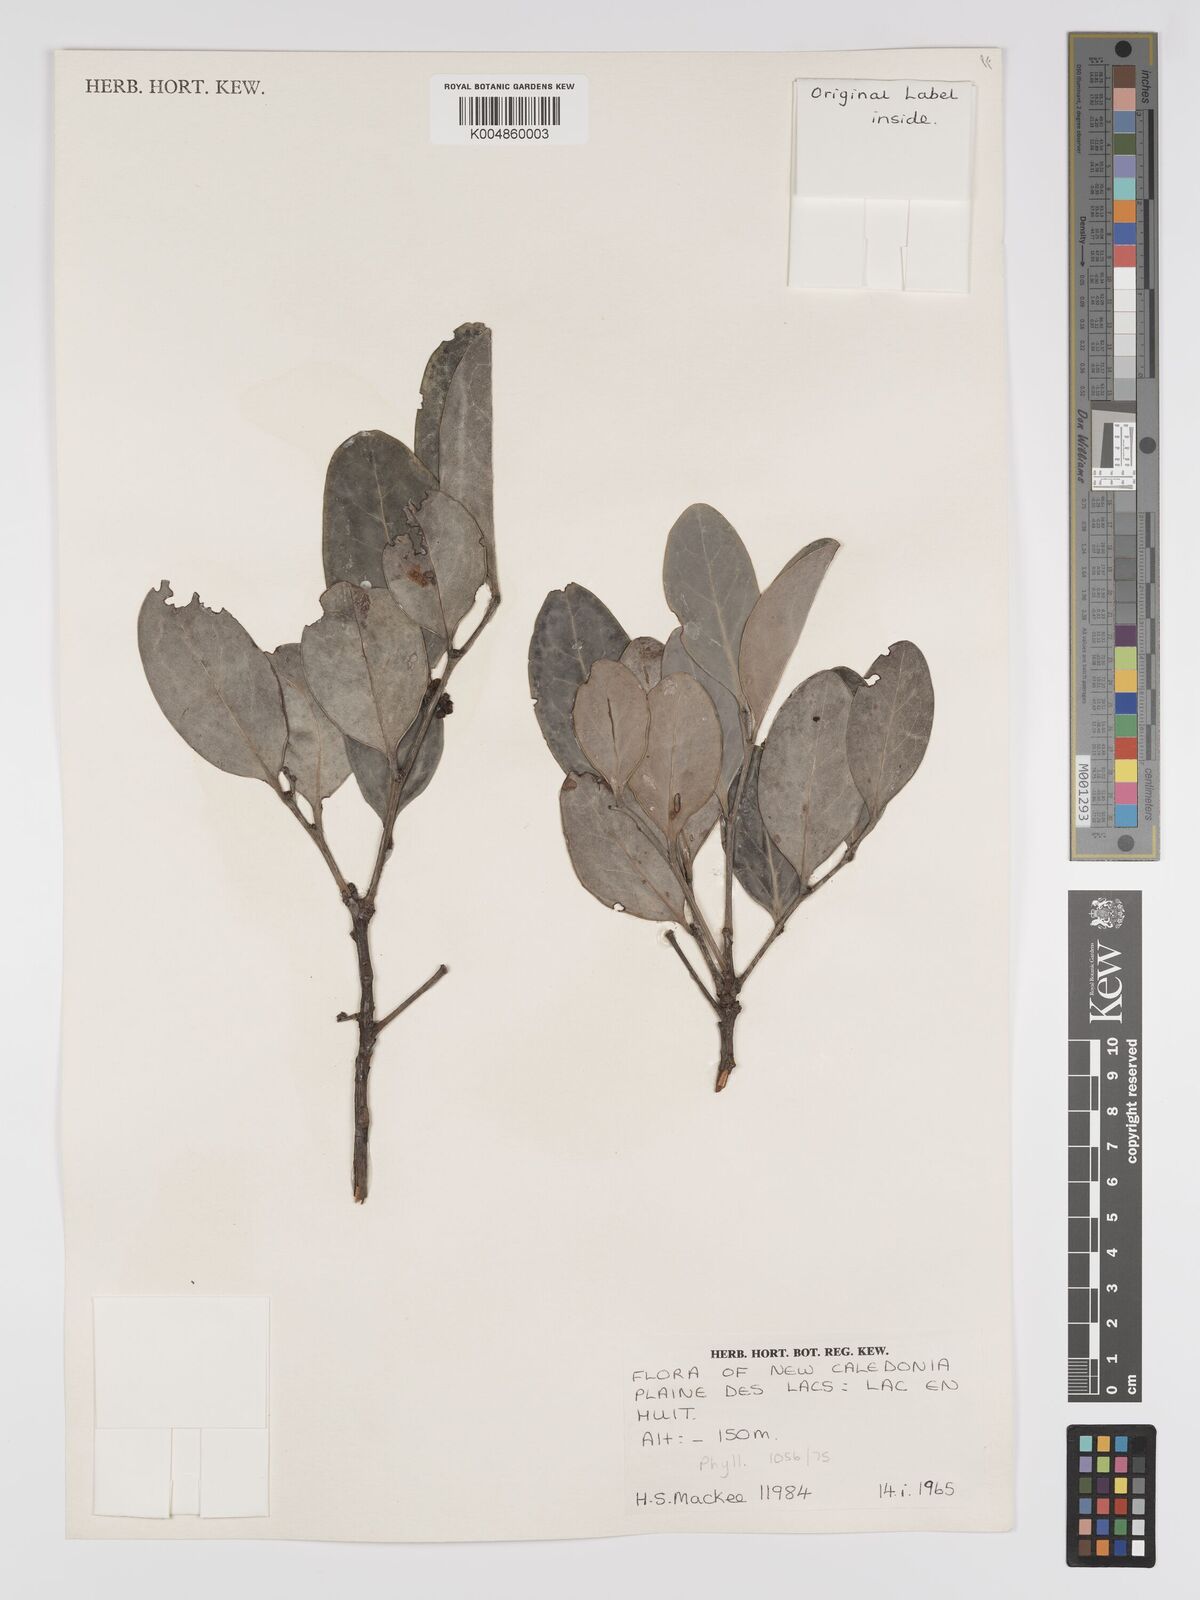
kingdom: Plantae
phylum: Tracheophyta
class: Magnoliopsida
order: Malpighiales
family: Phyllanthaceae
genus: Phyllanthus
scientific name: Phyllanthus
